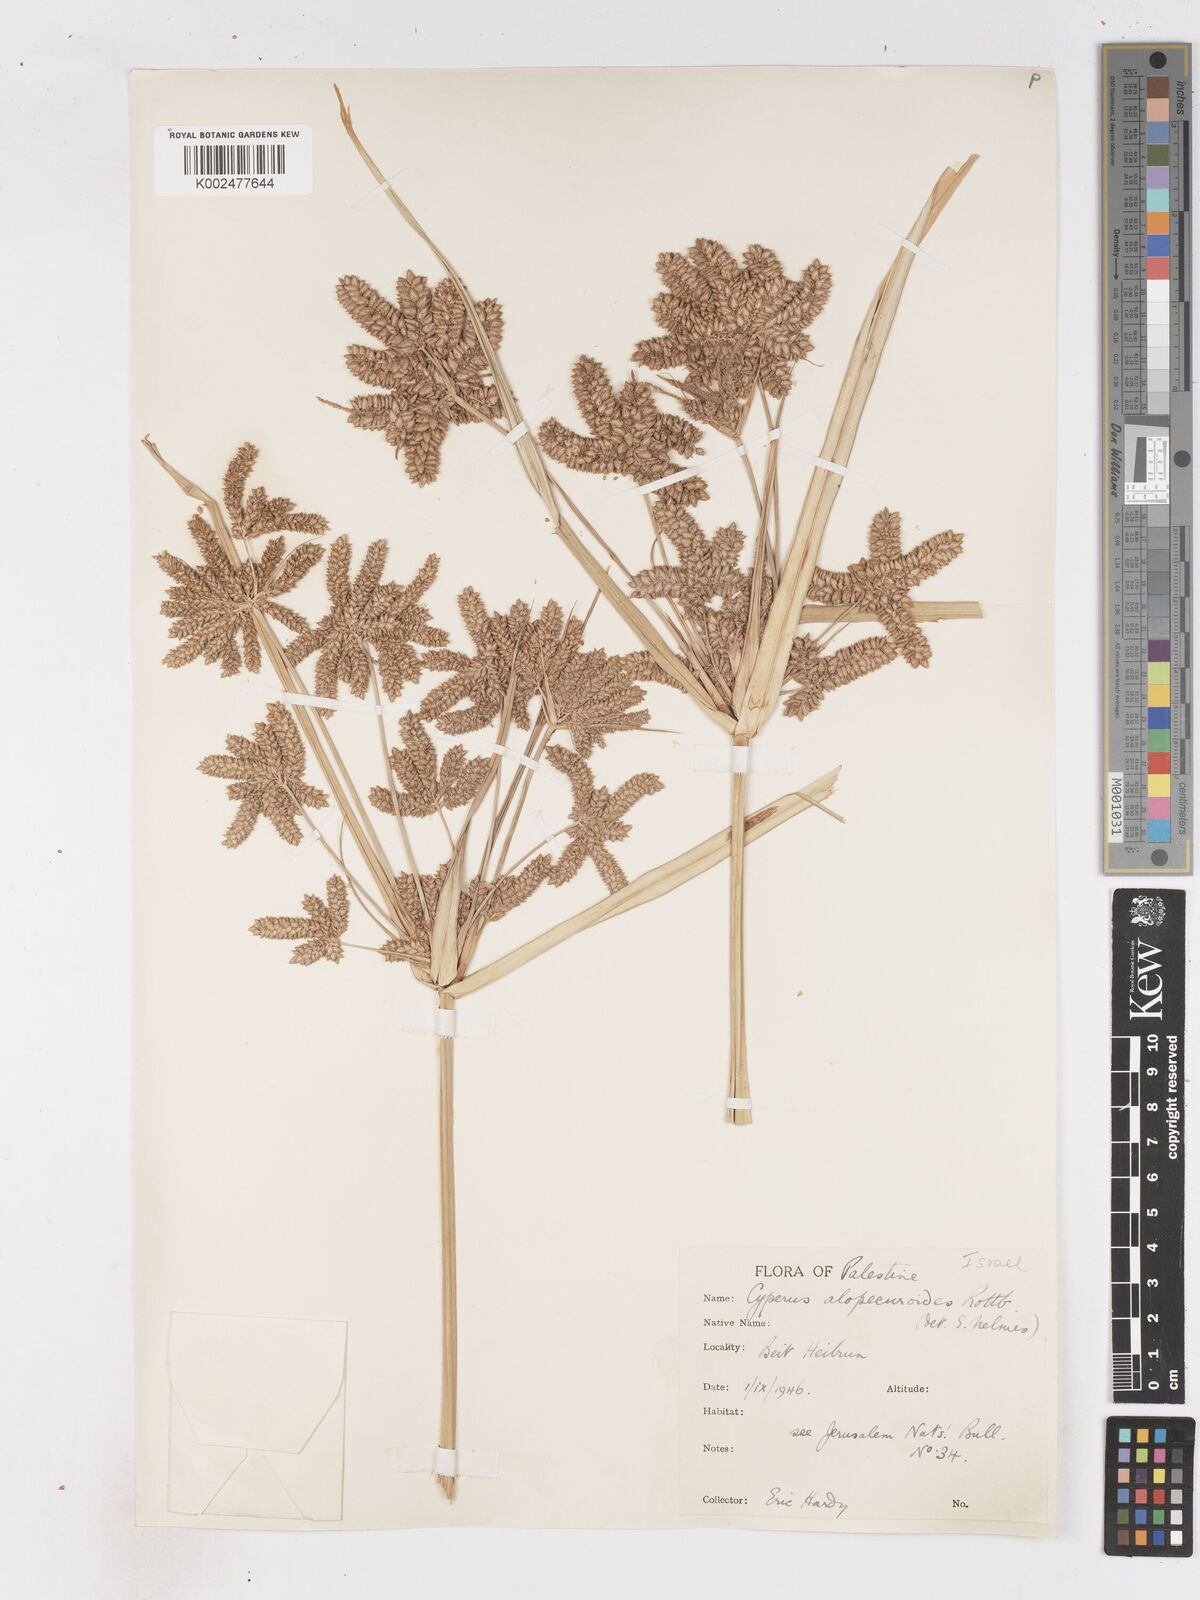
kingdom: Plantae
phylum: Tracheophyta
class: Liliopsida
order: Poales
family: Cyperaceae
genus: Cyperus
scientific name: Cyperus alopecuroides
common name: Foxtail flatsedge
